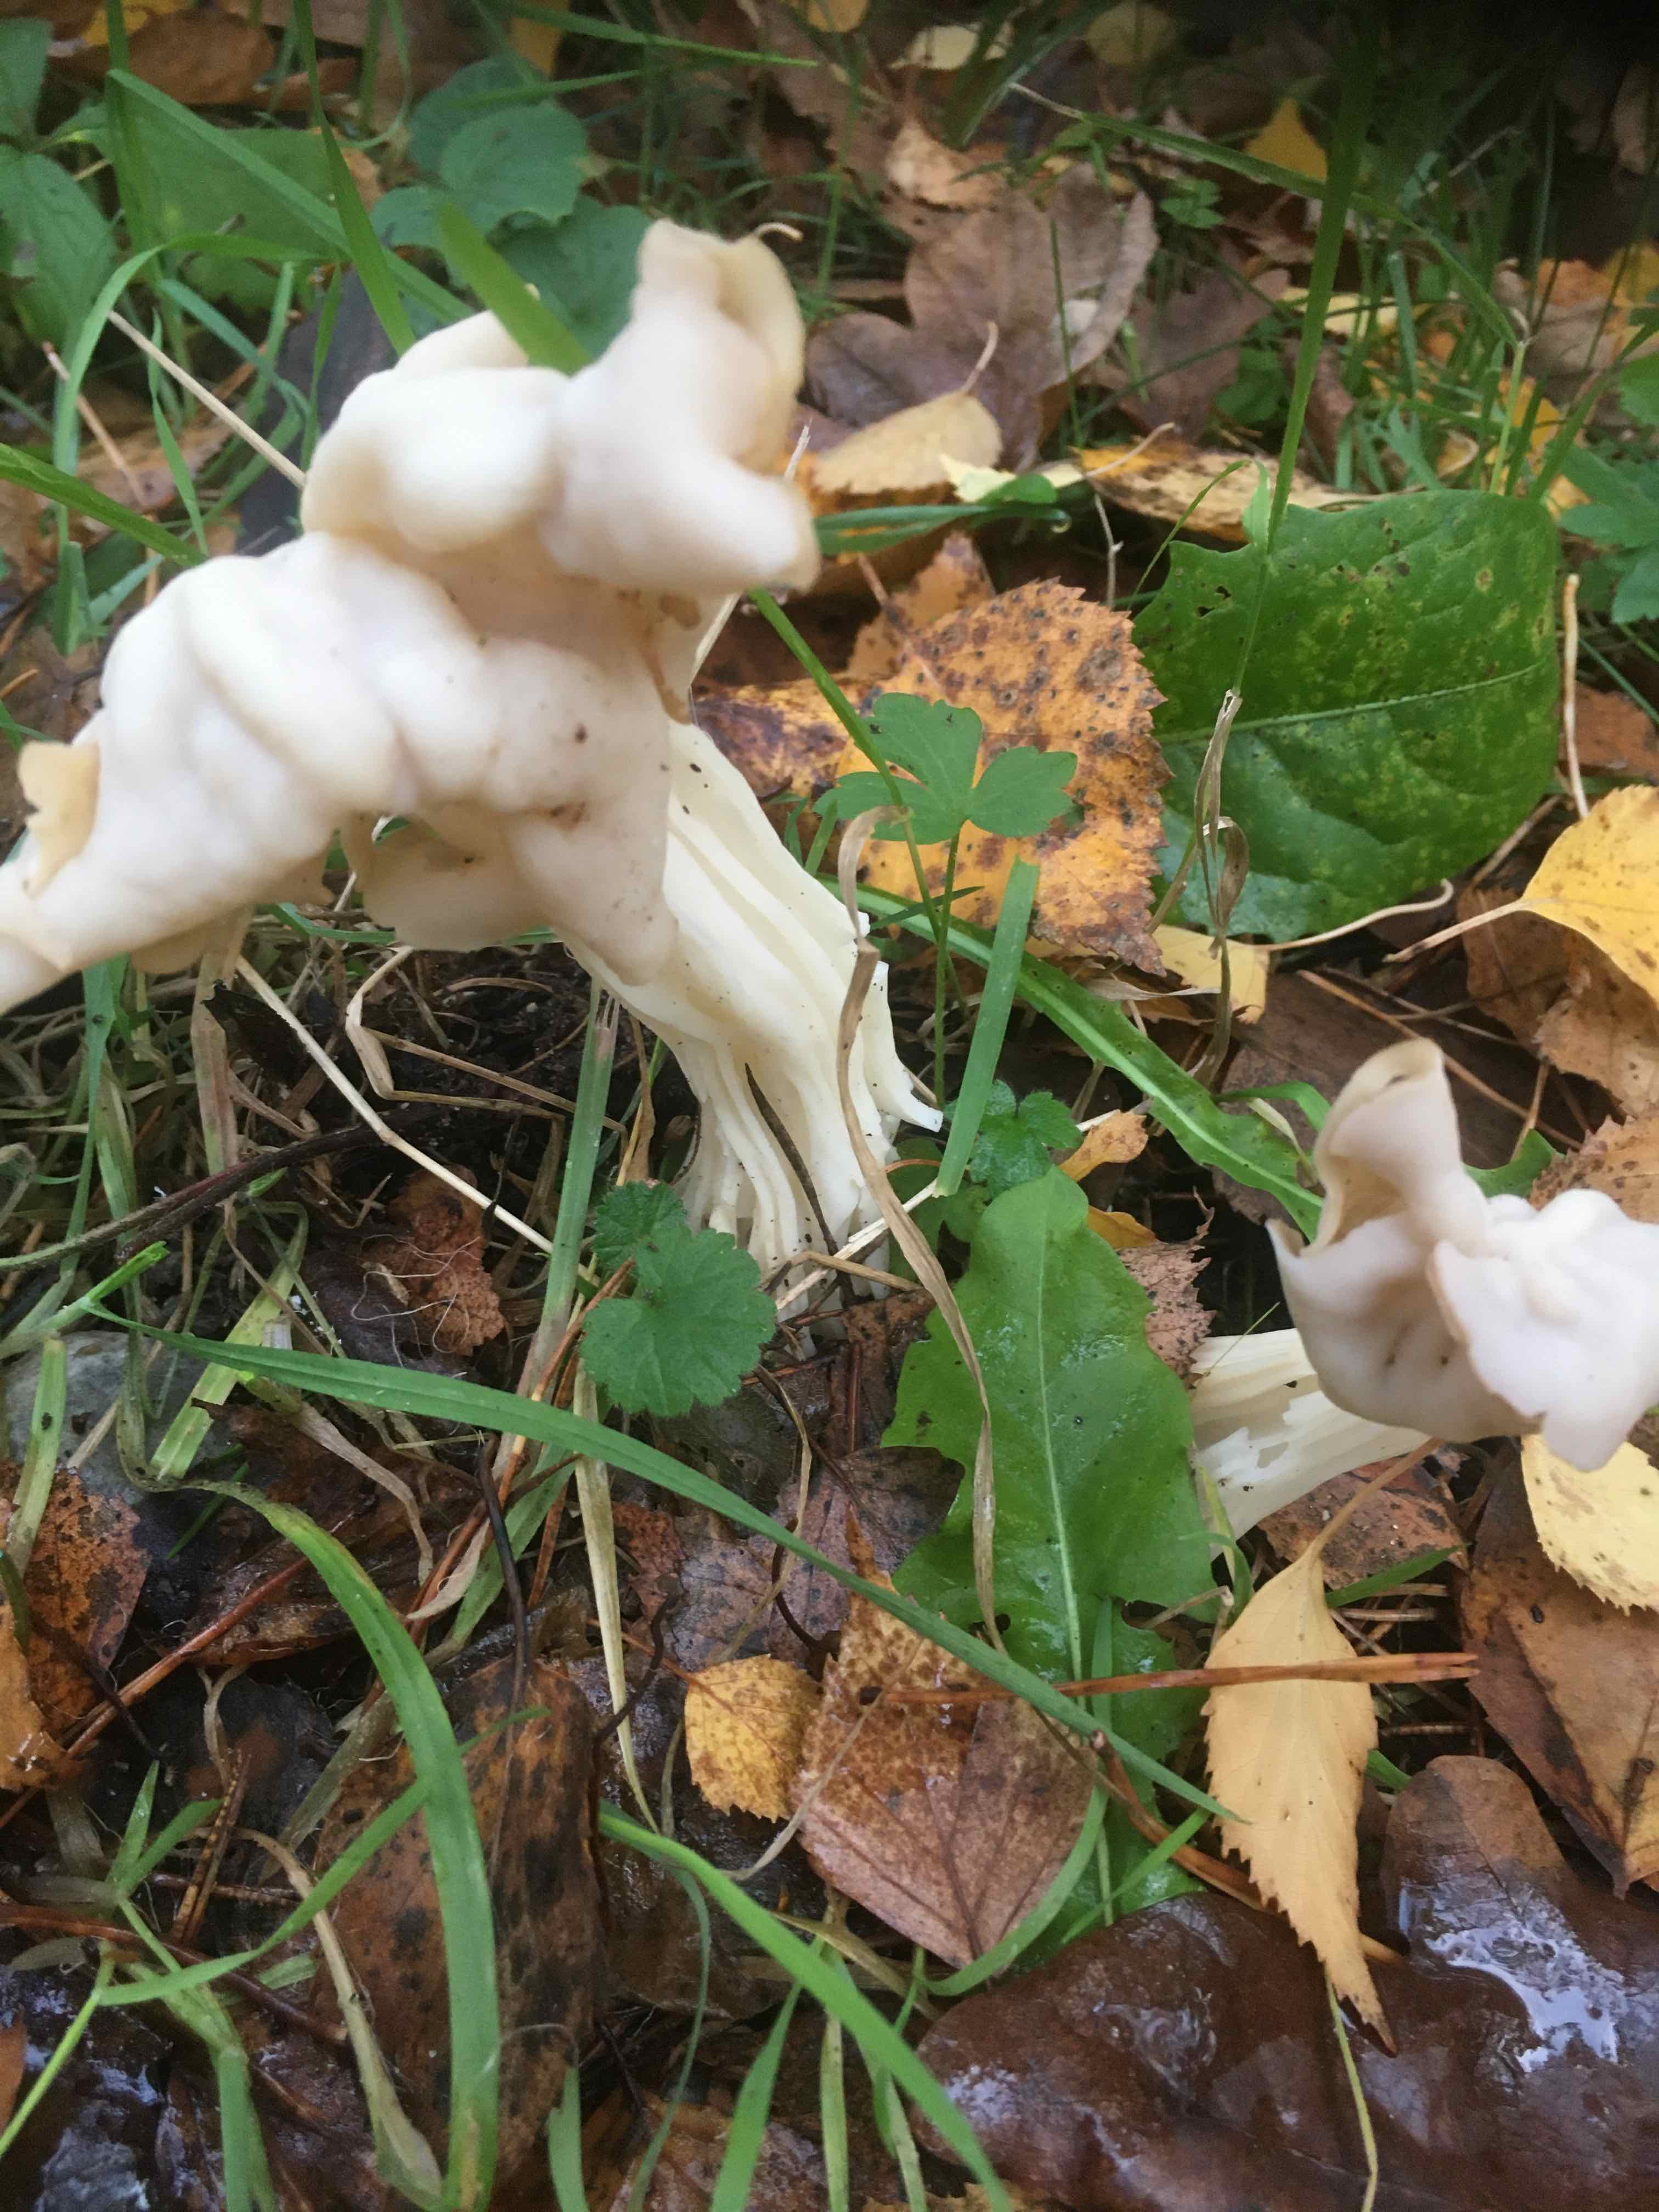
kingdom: Fungi
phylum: Ascomycota
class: Pezizomycetes
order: Pezizales
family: Helvellaceae
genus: Helvella
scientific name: Helvella crispa
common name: kruset foldhat
